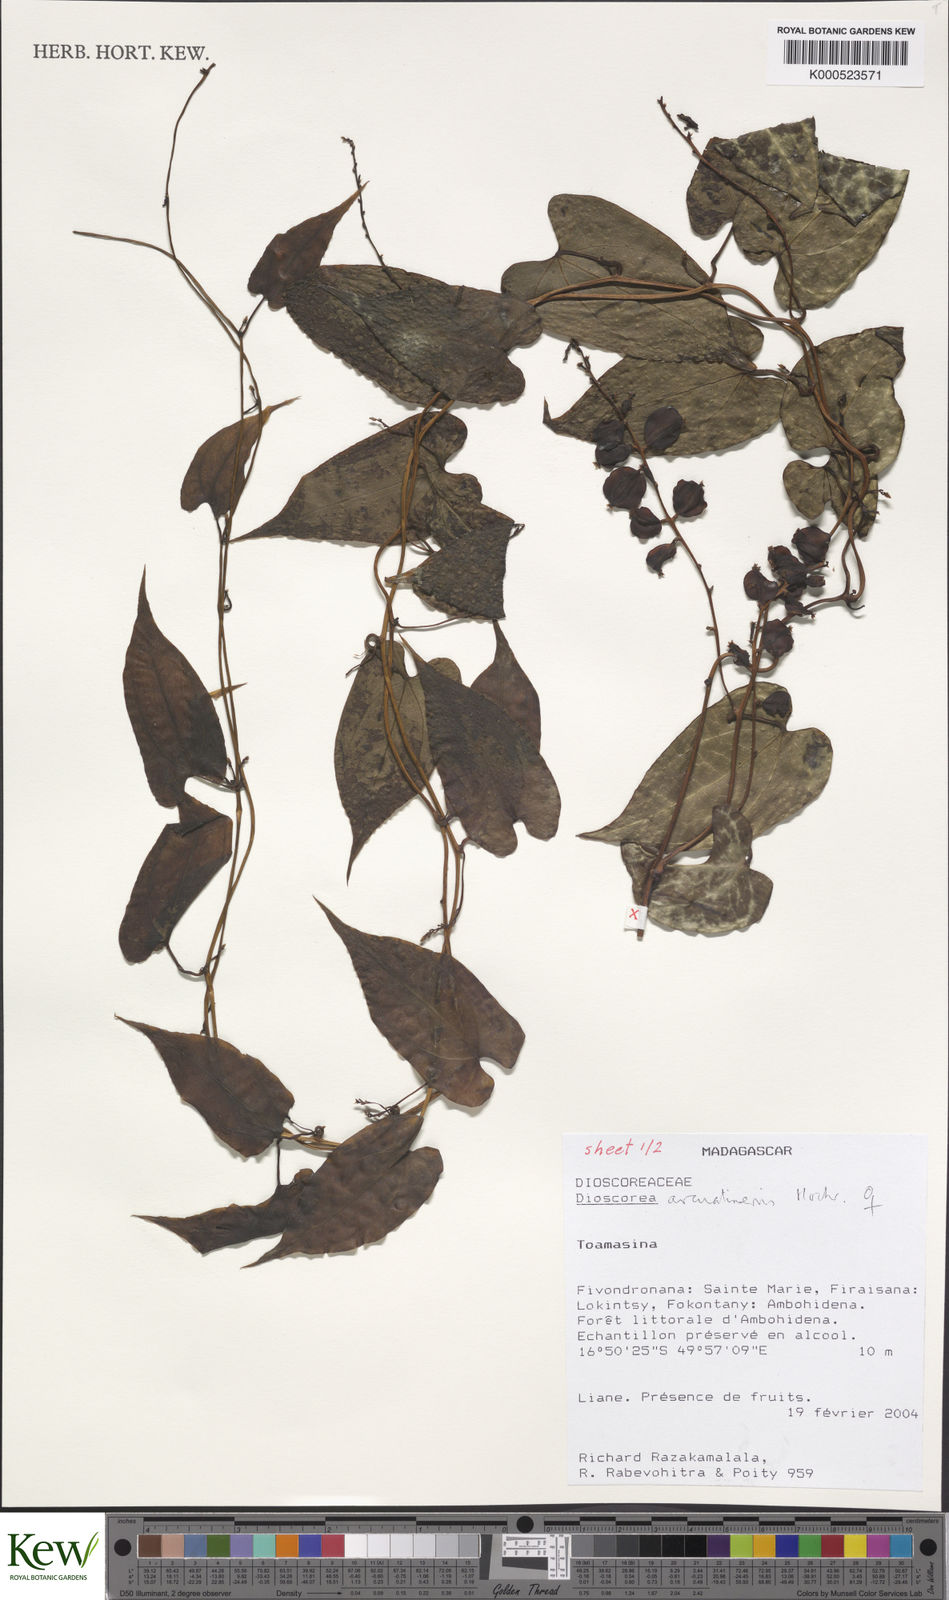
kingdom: Plantae
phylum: Tracheophyta
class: Liliopsida
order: Dioscoreales
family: Dioscoreaceae
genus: Dioscorea
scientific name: Dioscorea arcuatinervis
